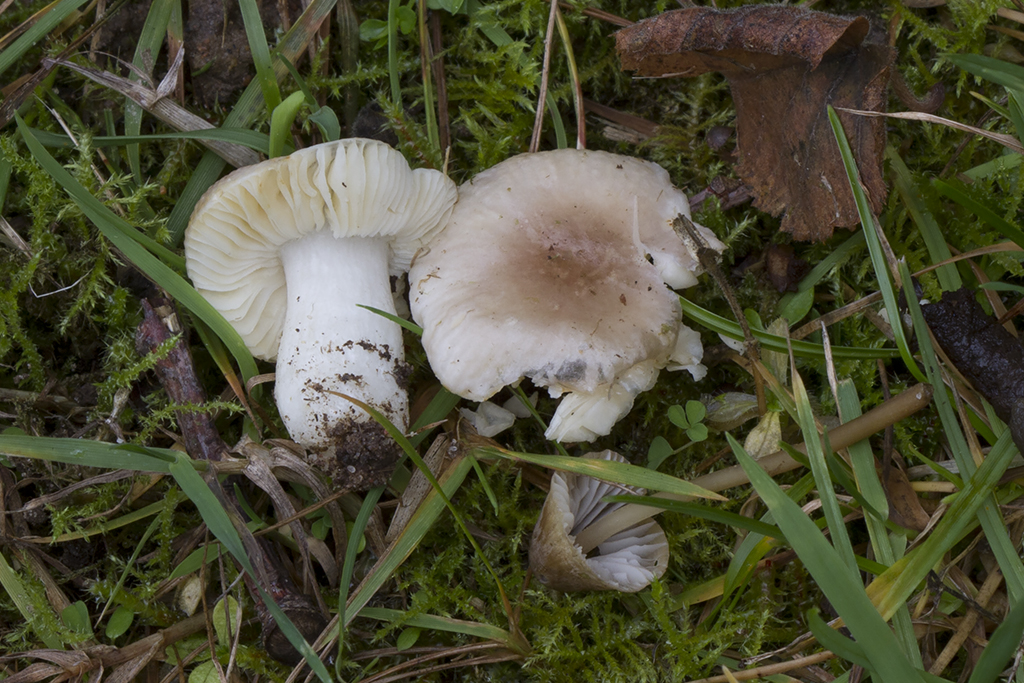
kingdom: Fungi
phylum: Basidiomycota
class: Agaricomycetes
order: Russulales
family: Russulaceae
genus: Russula
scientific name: Russula odorata
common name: duft-skørhat
